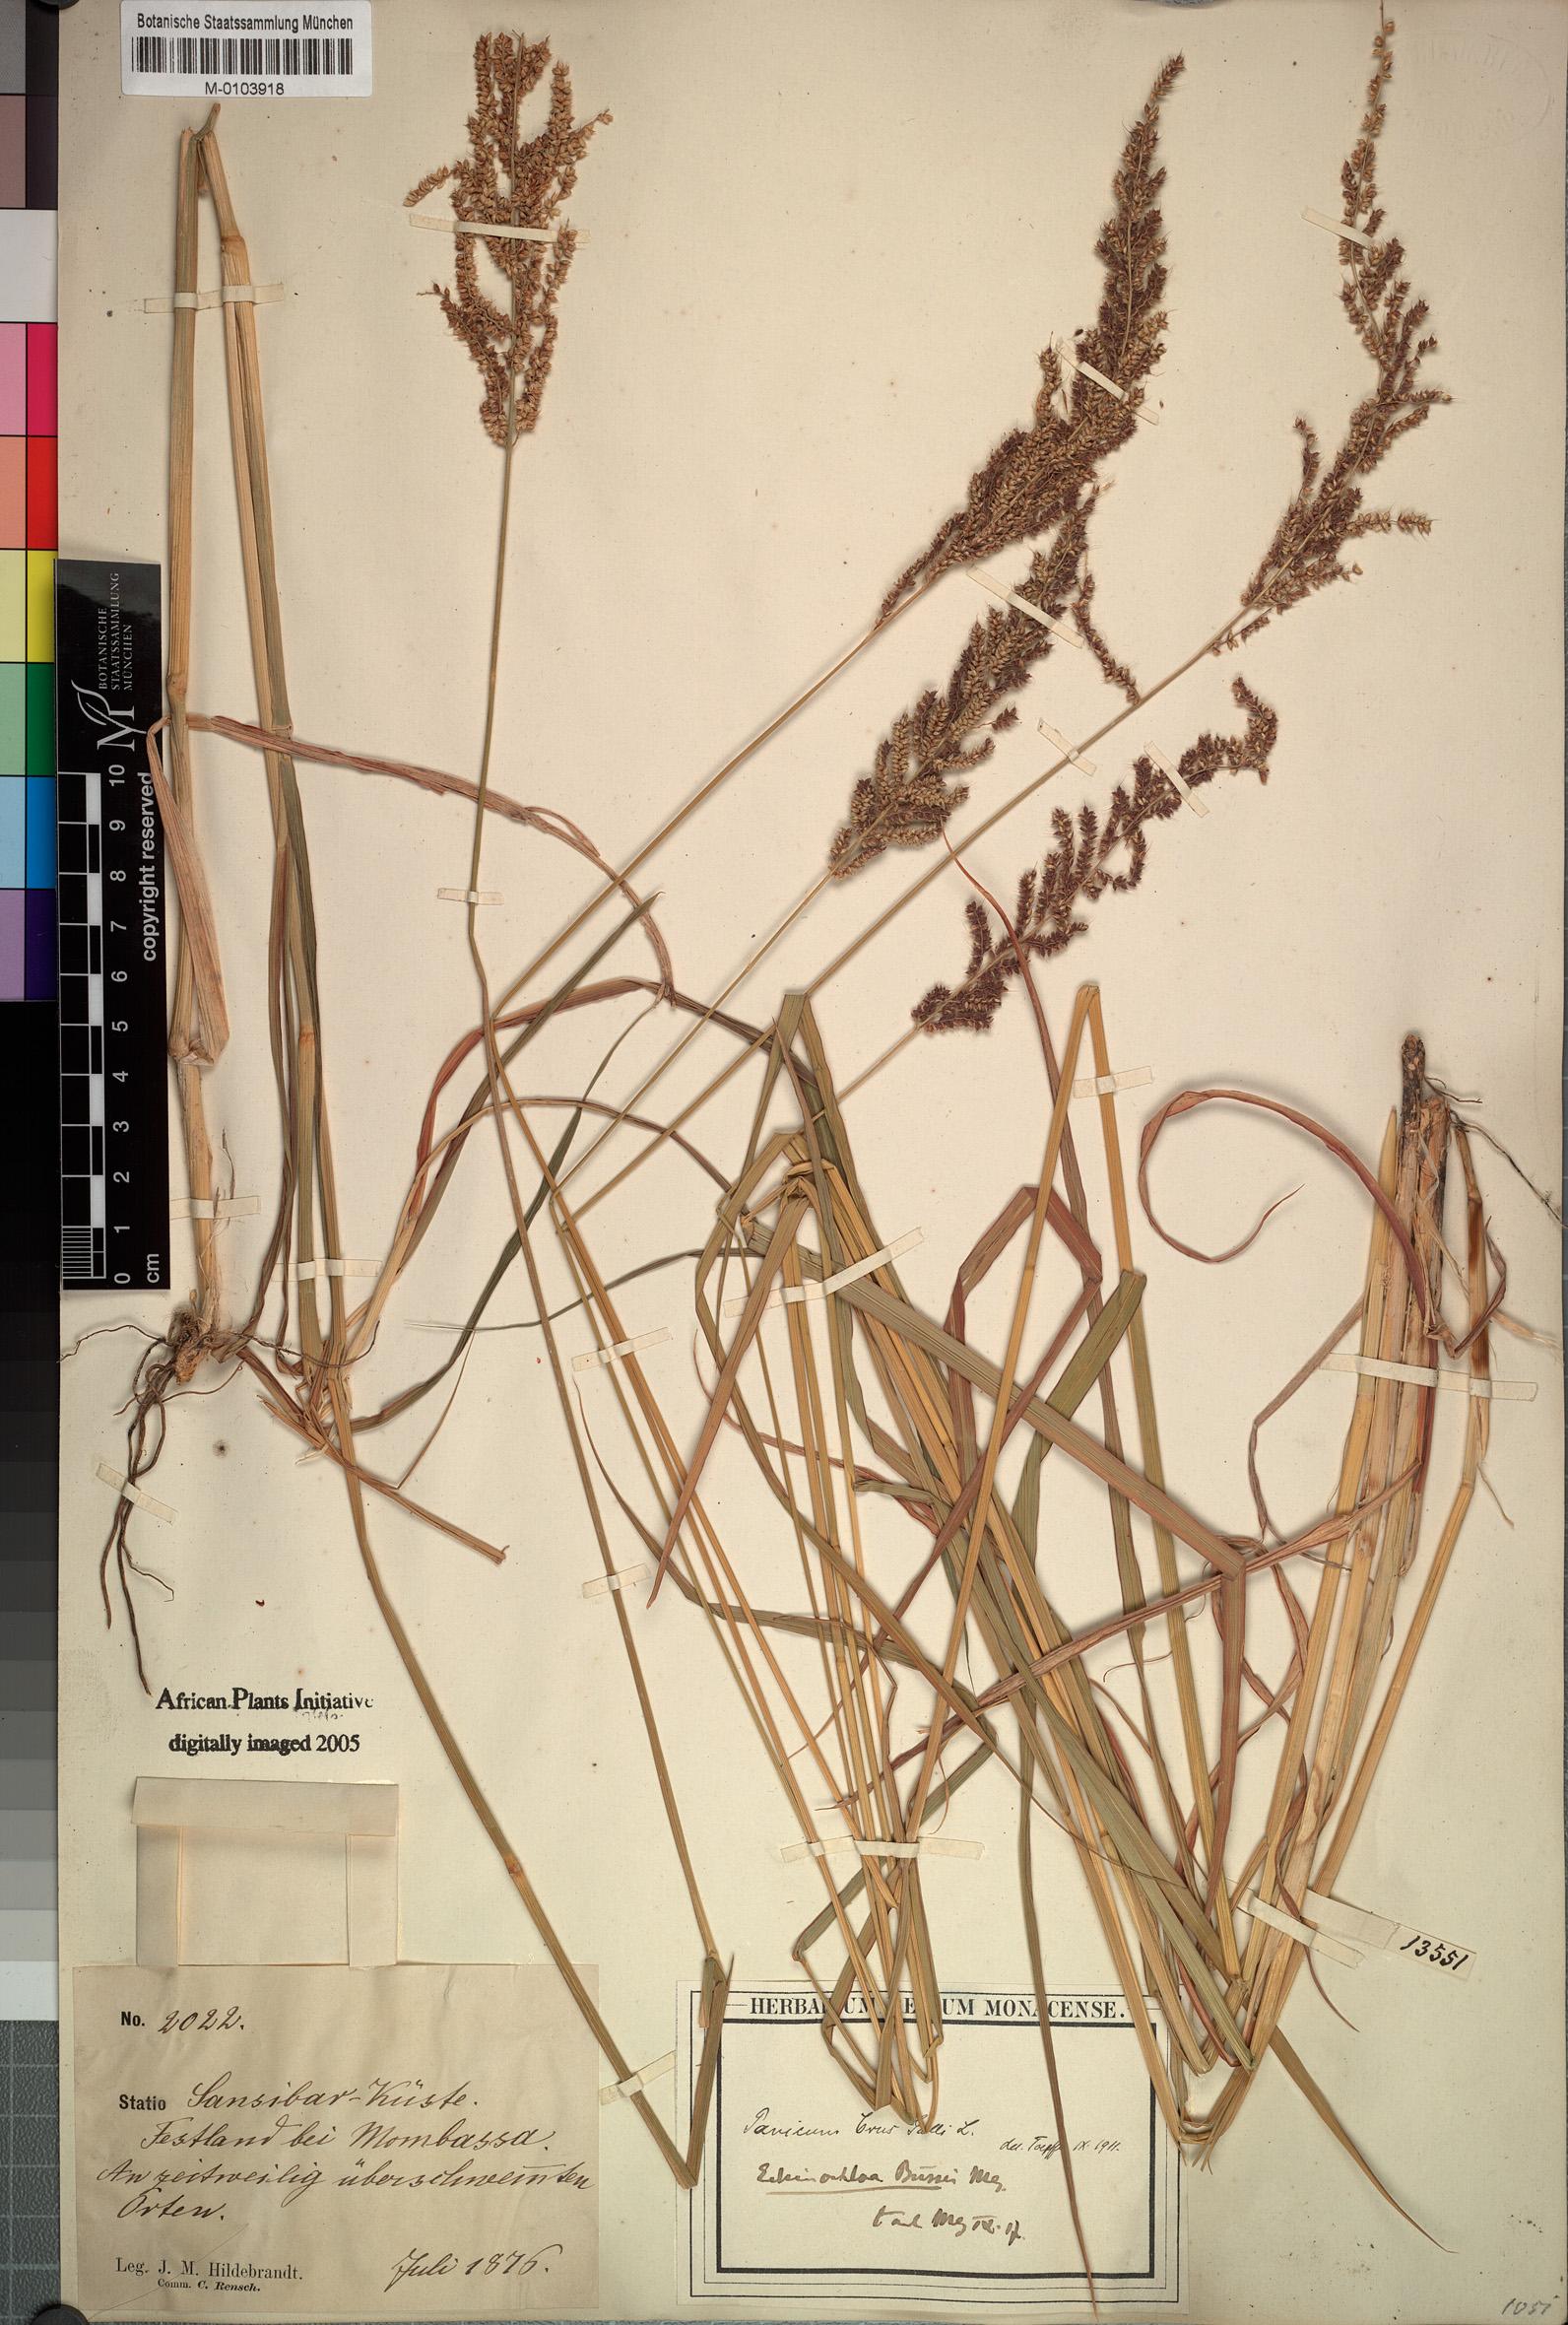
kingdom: Plantae
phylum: Tracheophyta
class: Liliopsida
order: Poales
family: Poaceae
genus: Echinochloa
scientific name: Echinochloa haploclada
